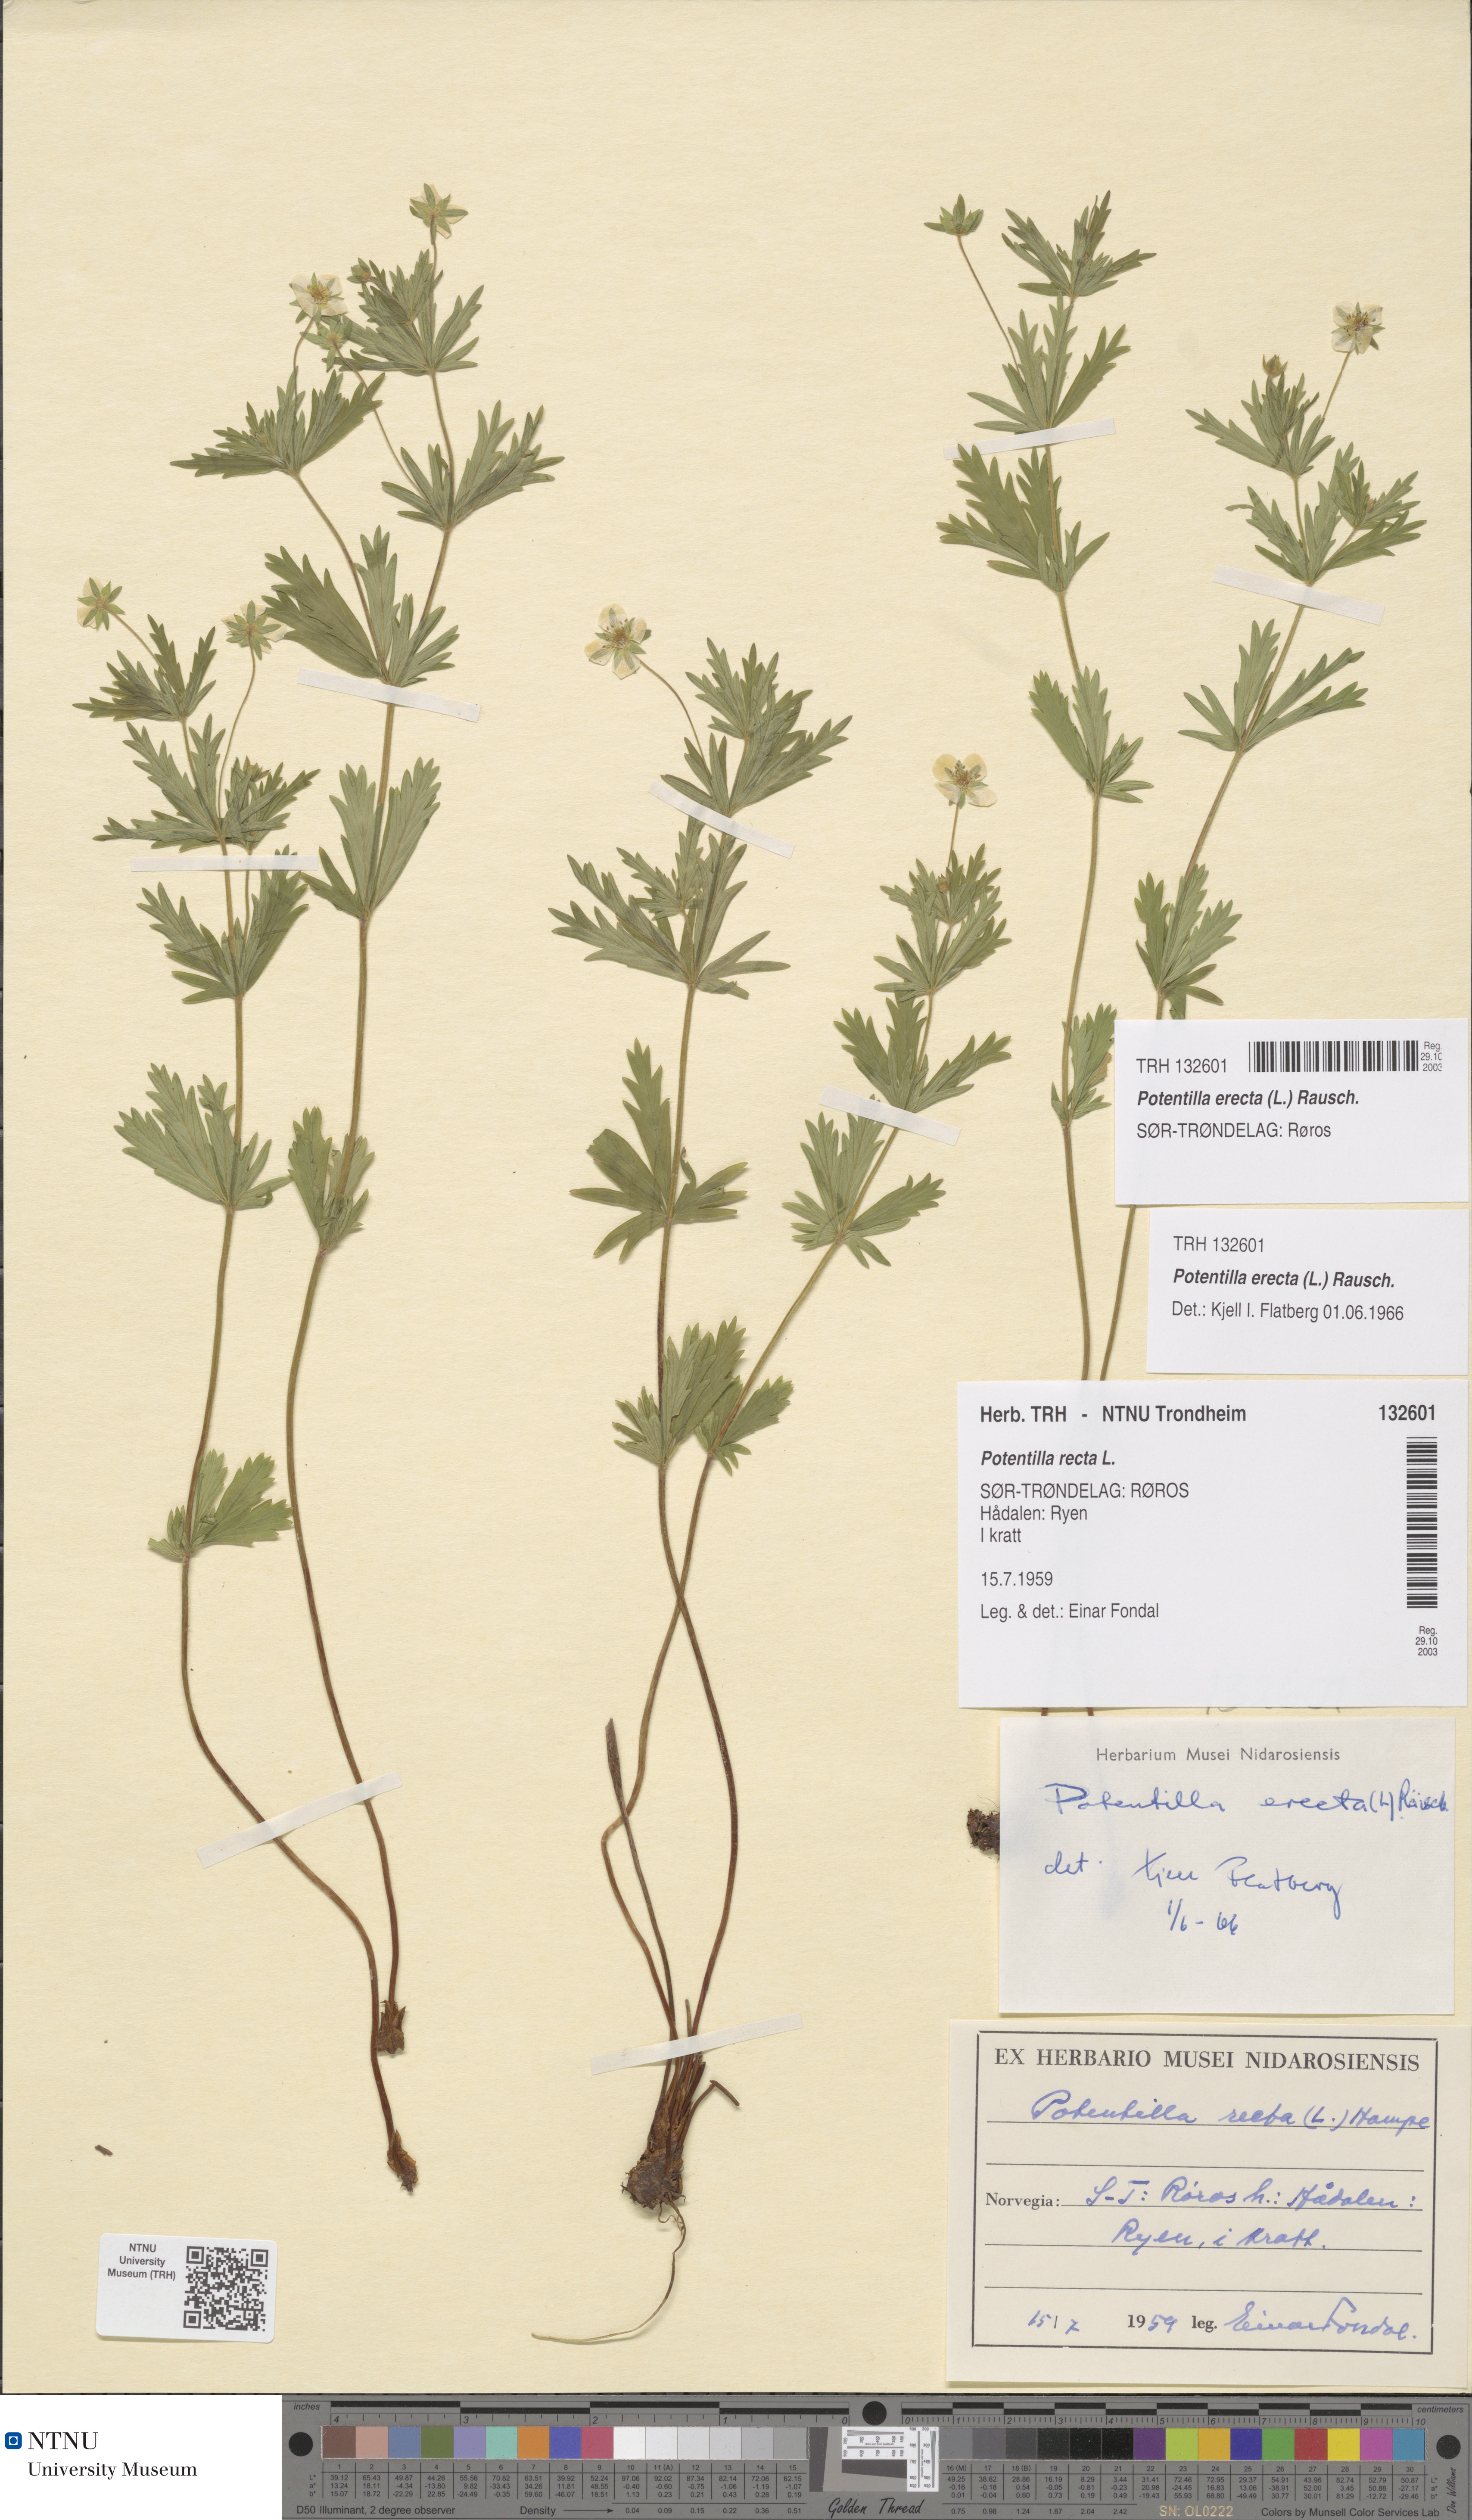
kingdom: Plantae
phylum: Tracheophyta
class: Magnoliopsida
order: Rosales
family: Rosaceae
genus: Potentilla
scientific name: Potentilla erecta
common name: Tormentil
